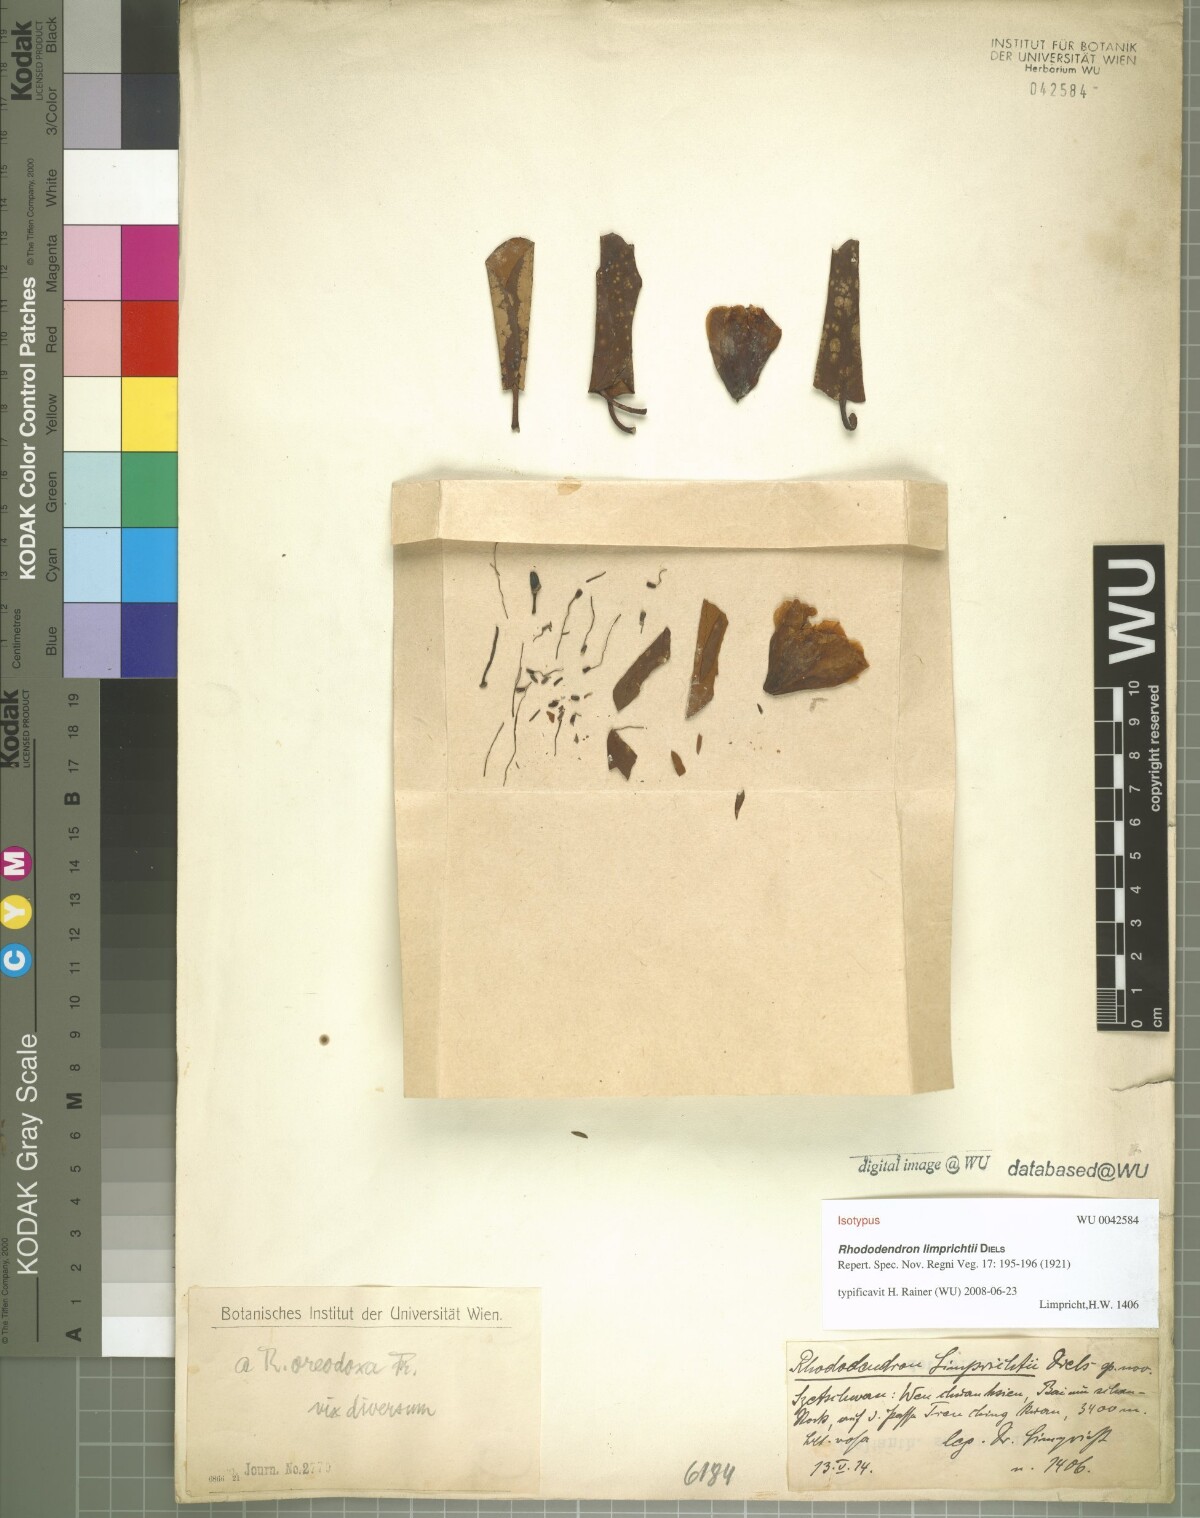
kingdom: Plantae
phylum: Tracheophyta
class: Magnoliopsida
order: Ericales
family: Ericaceae
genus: Rhododendron
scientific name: Rhododendron oreodoxa
